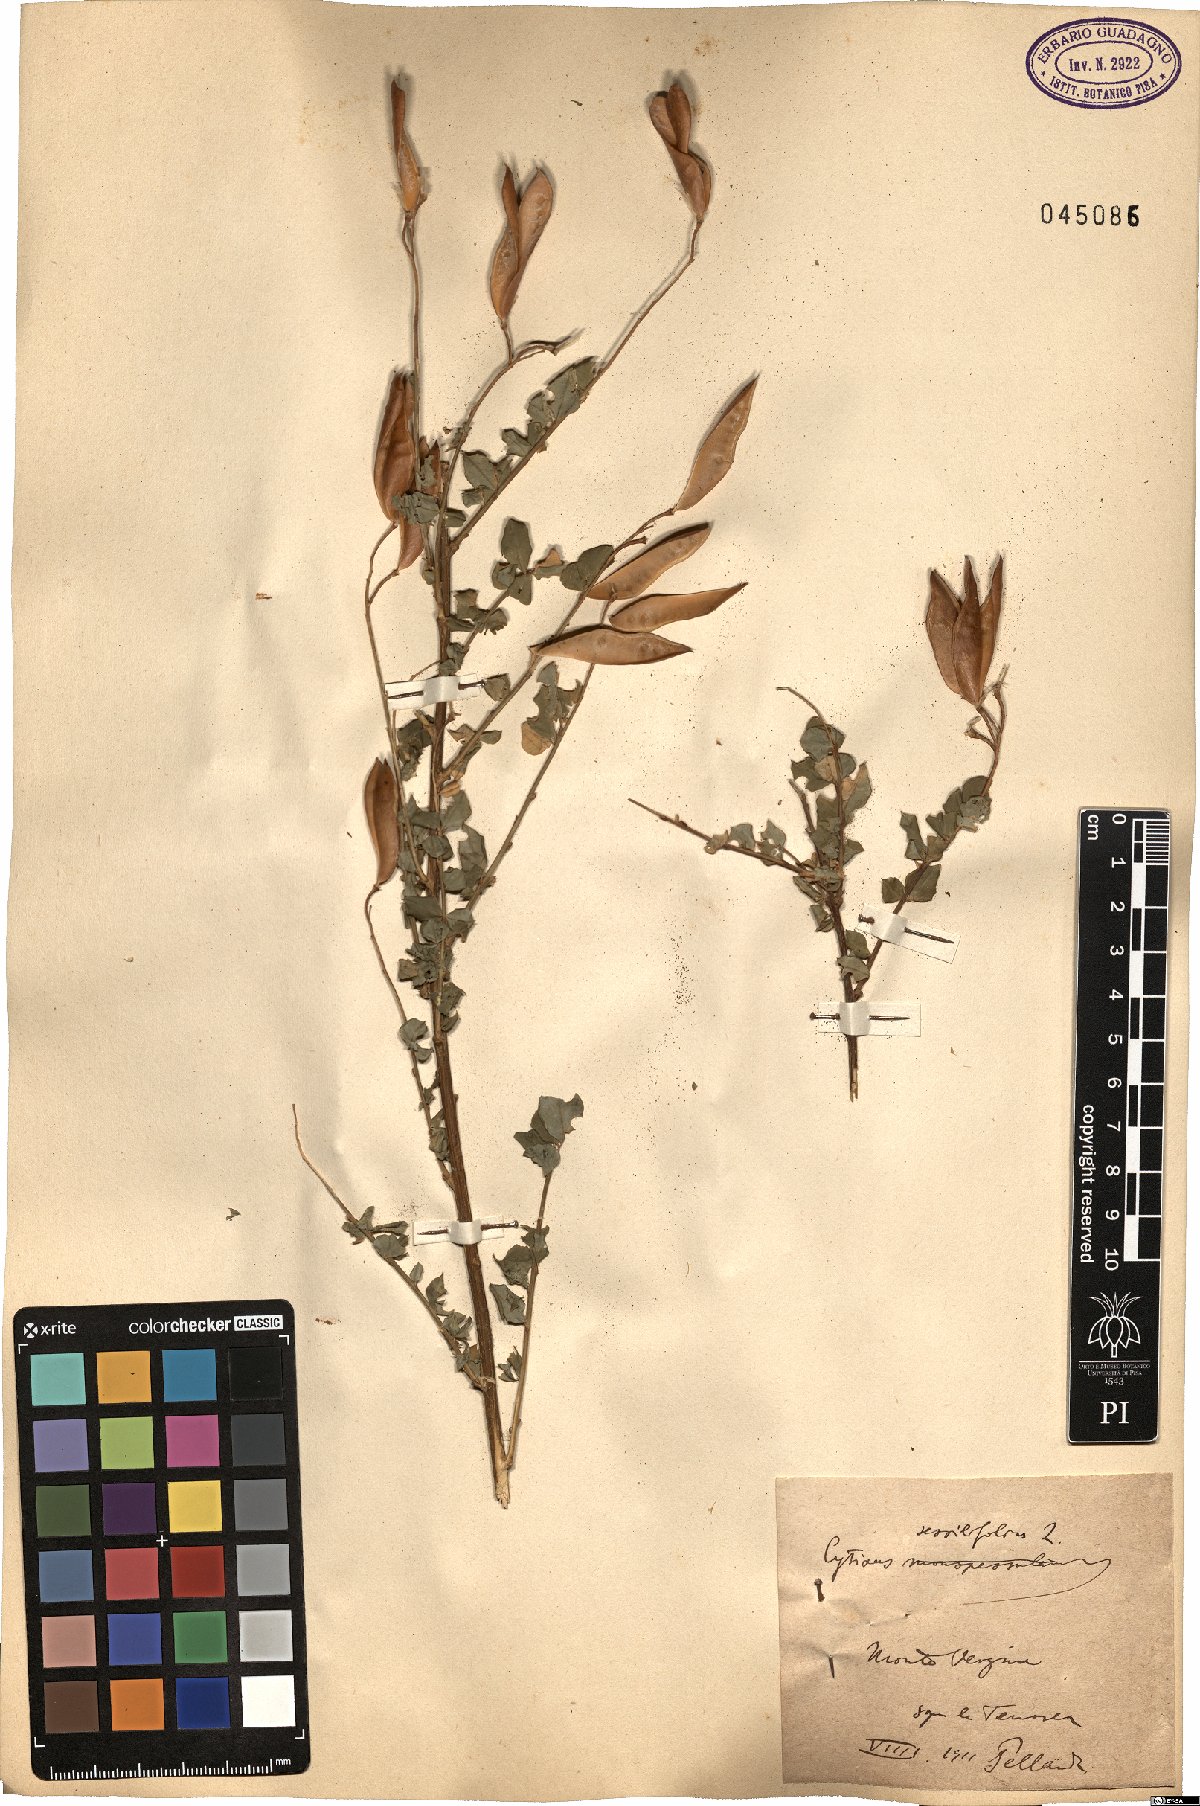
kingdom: Plantae
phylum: Tracheophyta
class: Magnoliopsida
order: Fabales
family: Fabaceae
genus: Cytisophyllum
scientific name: Cytisophyllum sessilifolium
